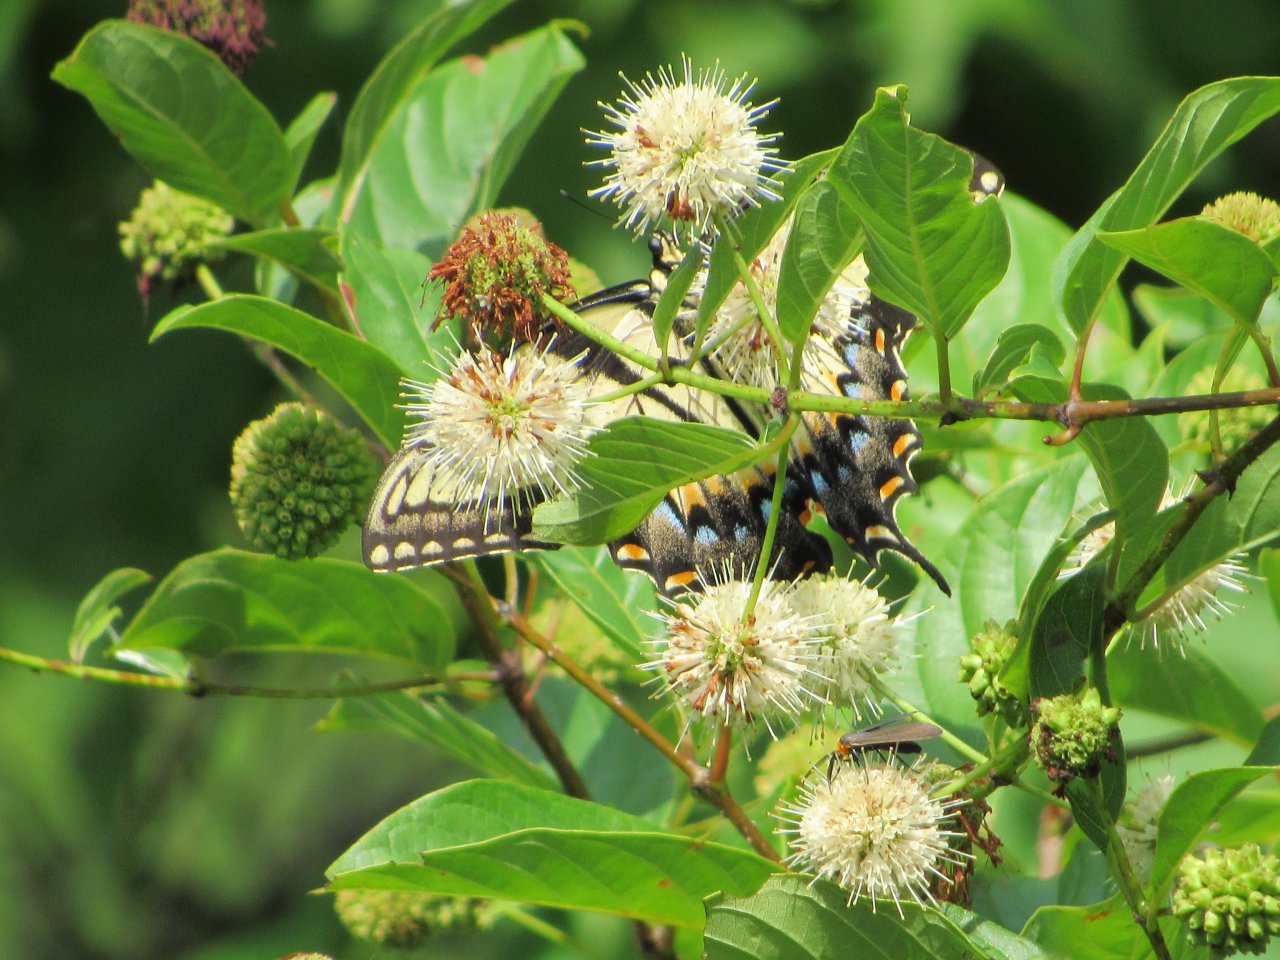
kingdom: Animalia
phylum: Arthropoda
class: Insecta
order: Lepidoptera
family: Papilionidae
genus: Pterourus
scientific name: Pterourus glaucus
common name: Eastern Tiger Swallowtail
